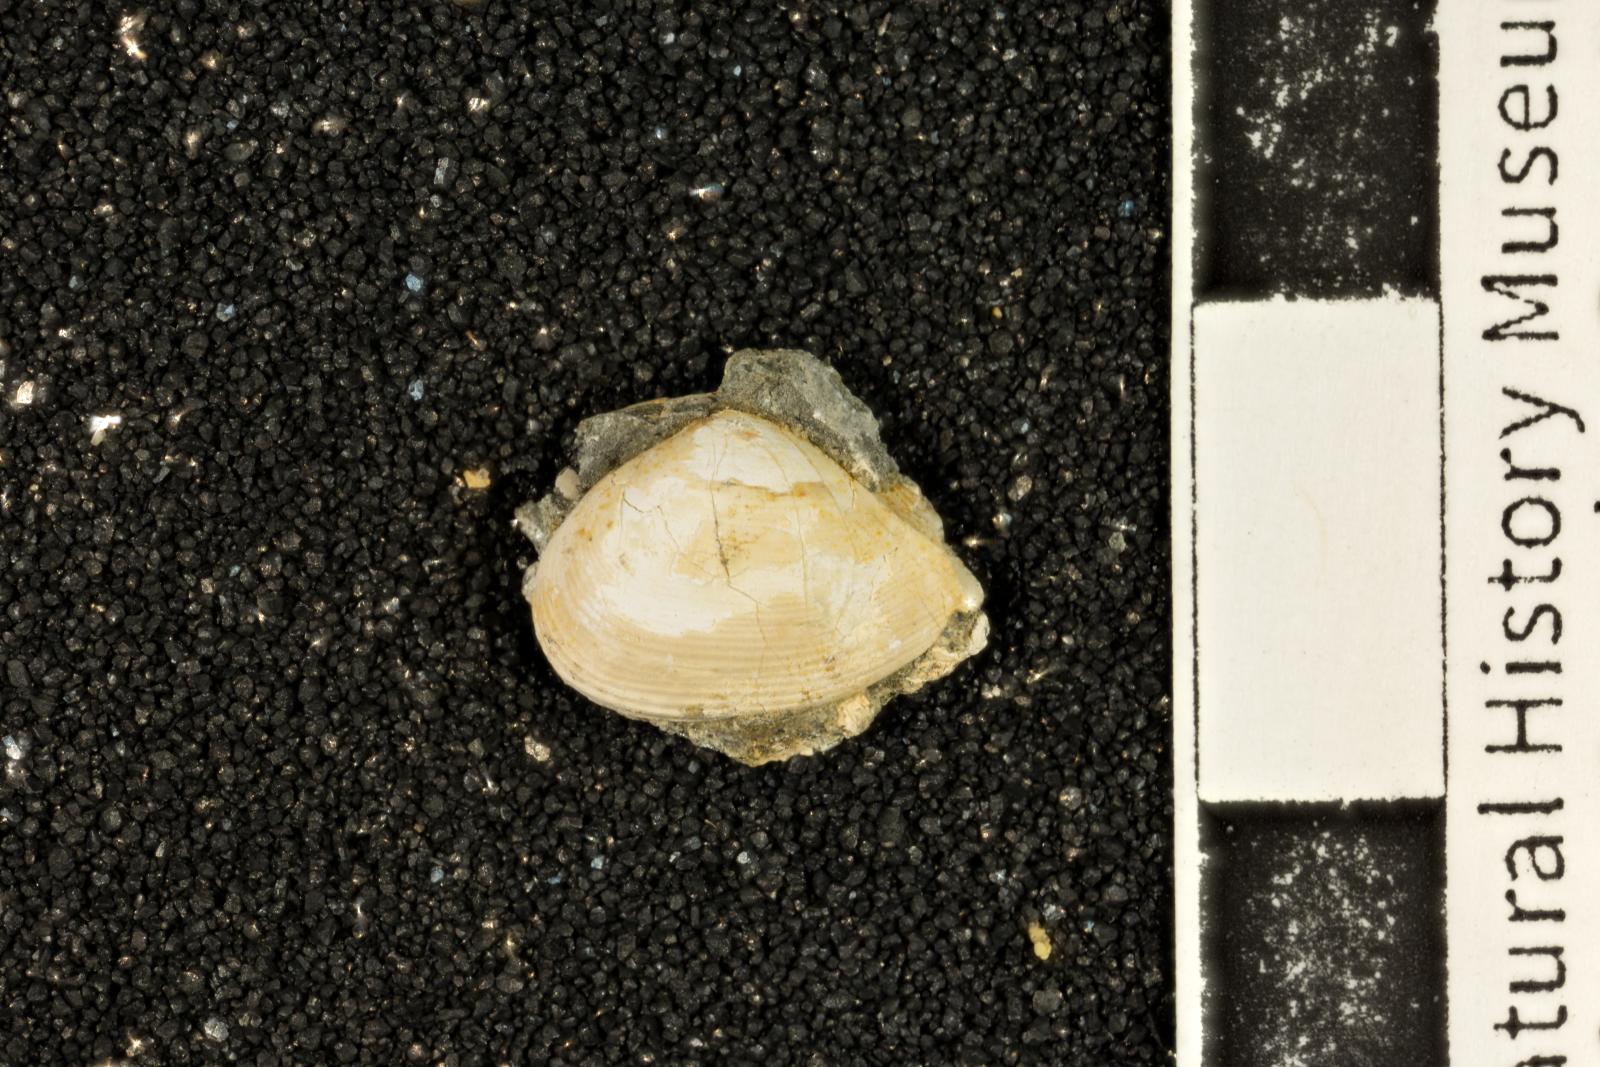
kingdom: Animalia
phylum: Mollusca
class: Bivalvia
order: Myida
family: Corbulidae
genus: Caryocorbula
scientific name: Caryocorbula vacca
